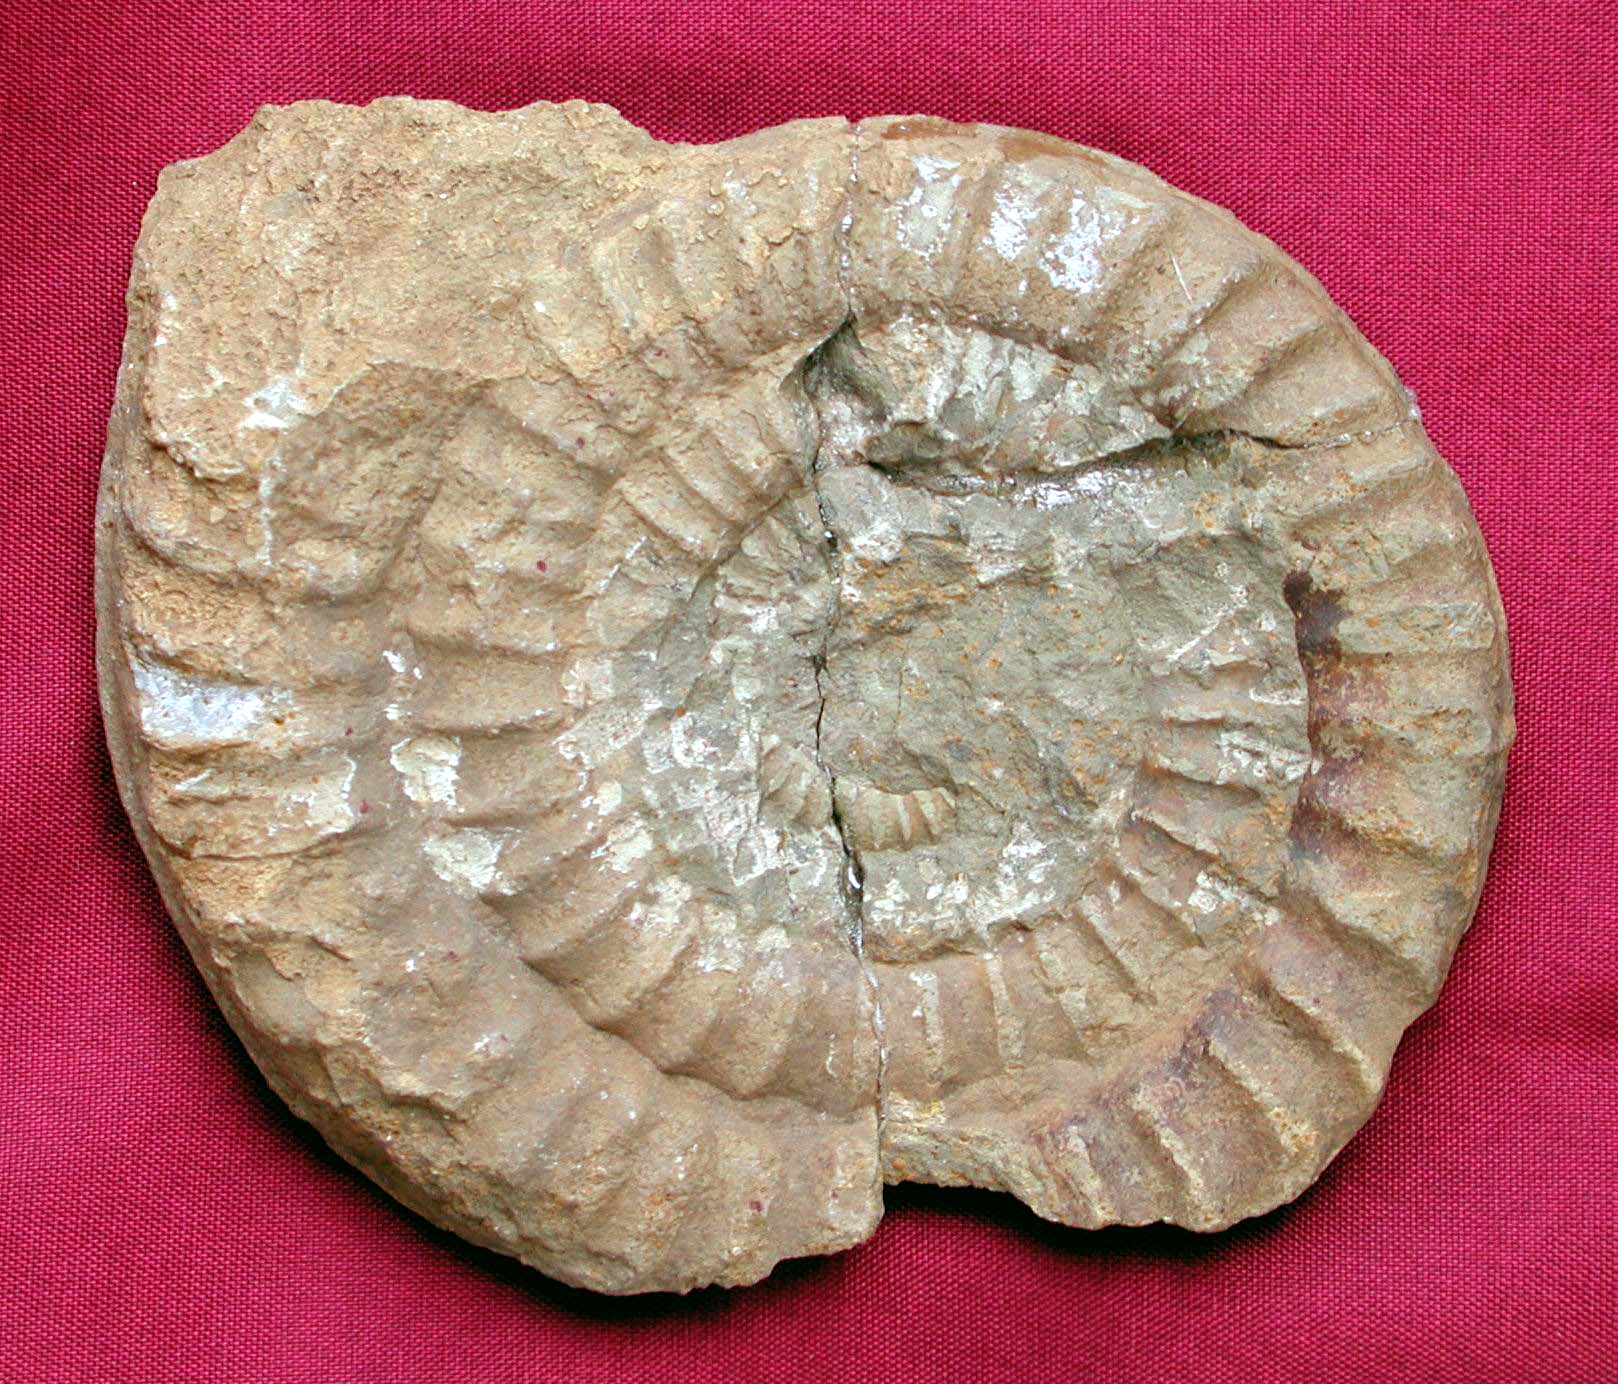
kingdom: Animalia
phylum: Mollusca
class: Cephalopoda
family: Echioceratidae
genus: Paltechioceras
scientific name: Paltechioceras
